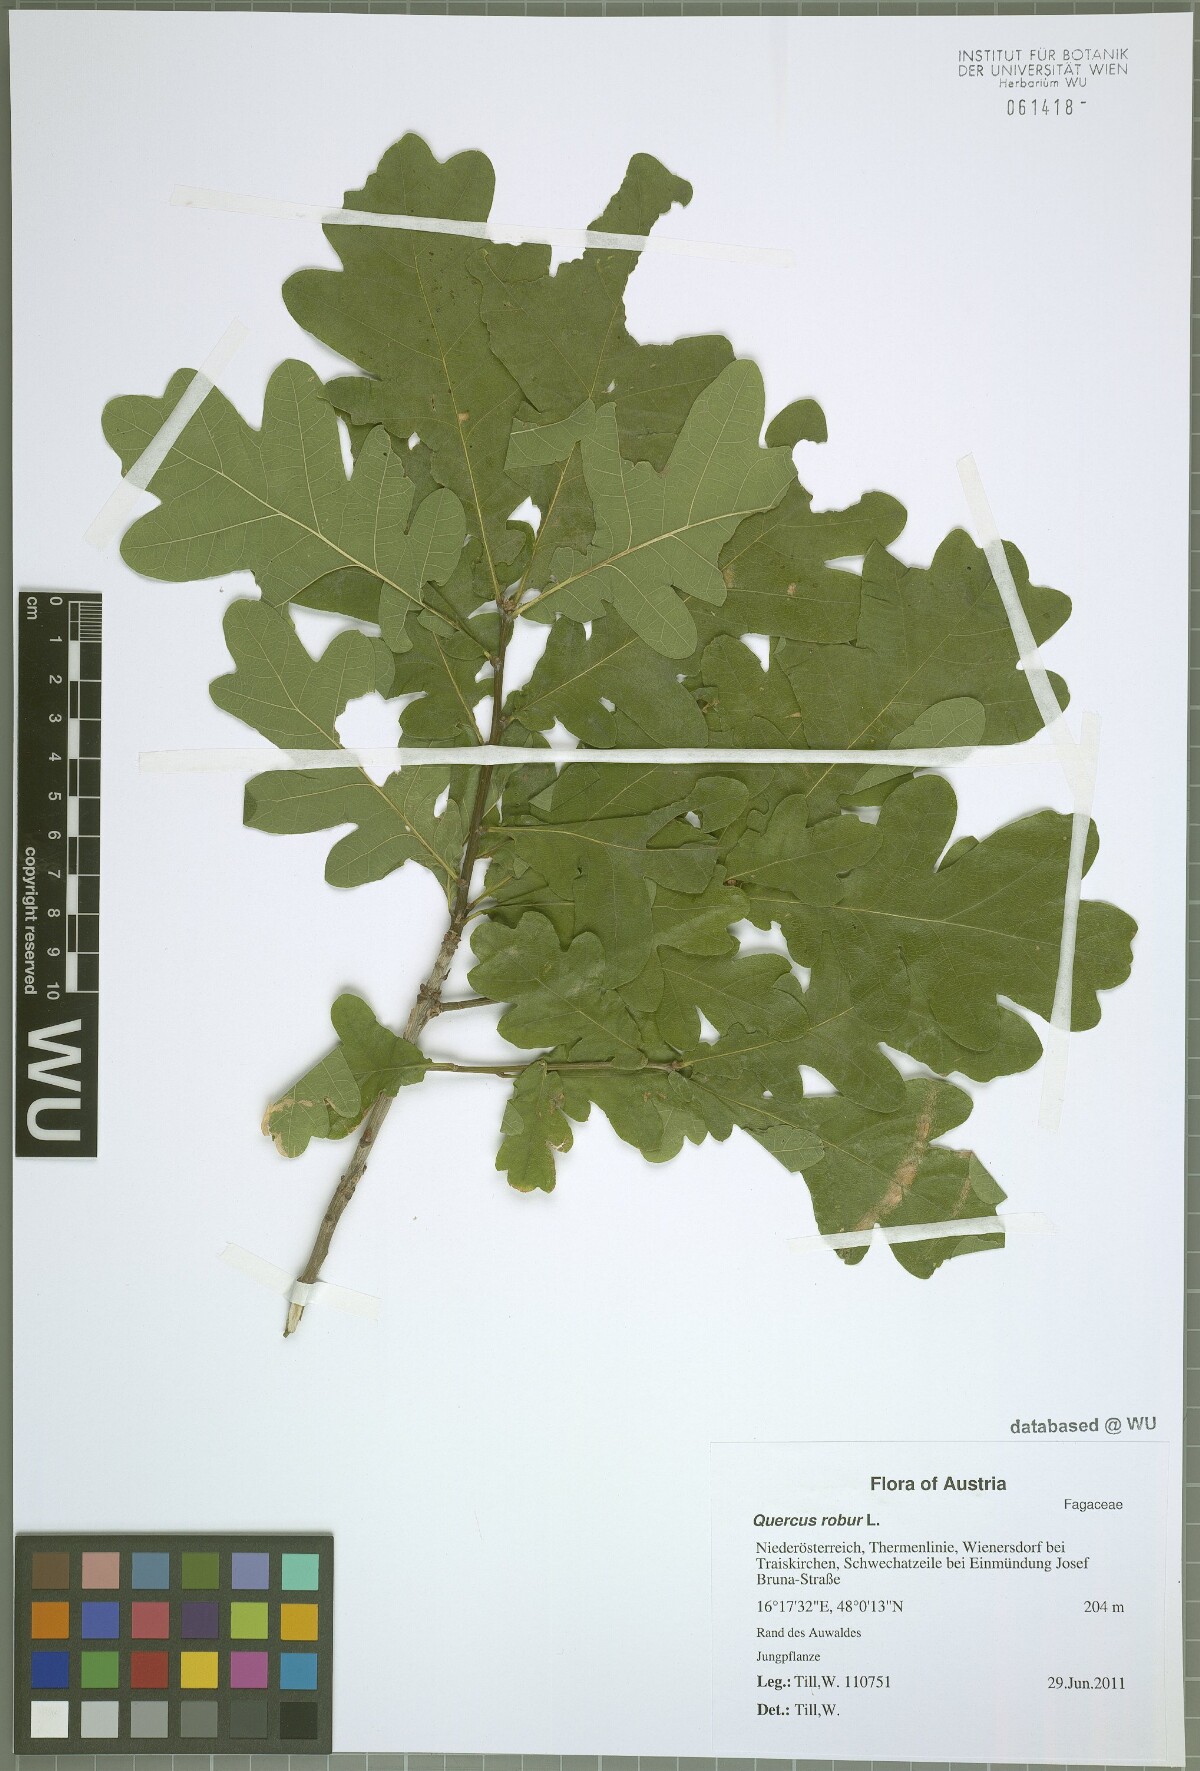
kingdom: Plantae
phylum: Tracheophyta
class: Magnoliopsida
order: Fagales
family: Fagaceae
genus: Quercus
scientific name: Quercus robur
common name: Pedunculate oak
